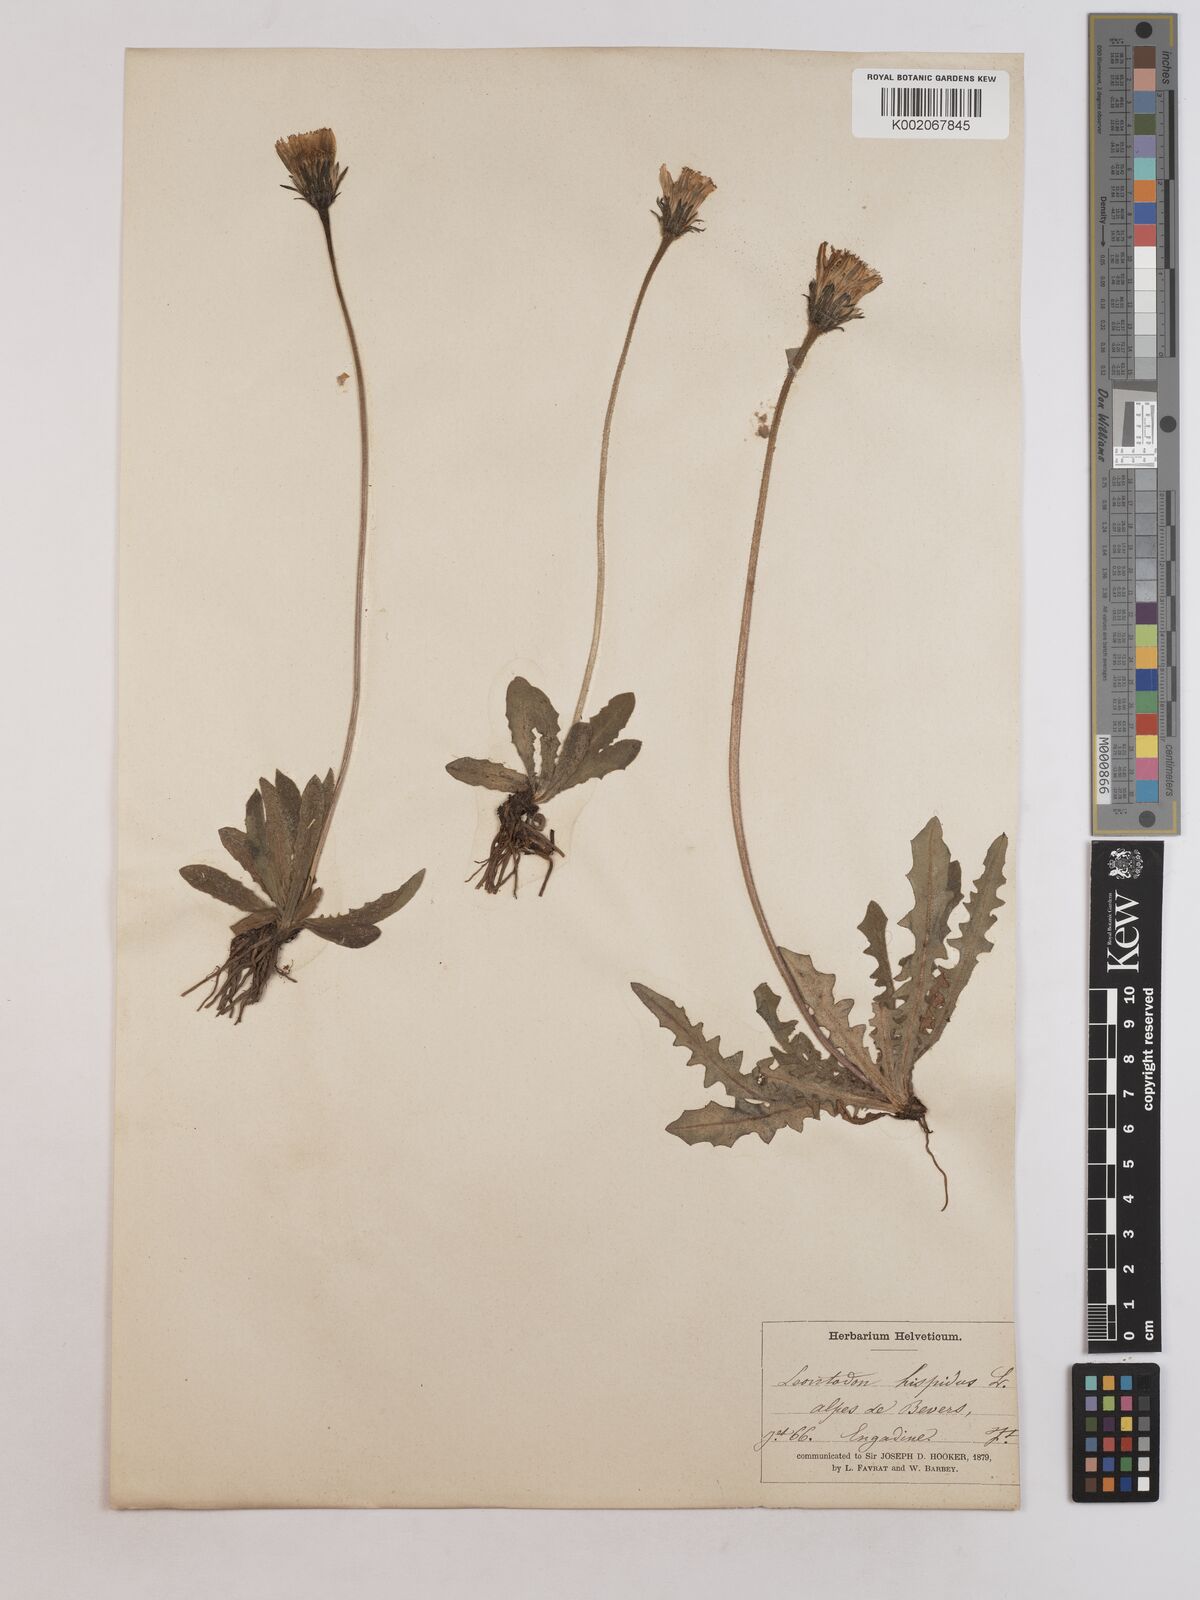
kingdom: Plantae
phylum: Tracheophyta
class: Magnoliopsida
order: Asterales
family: Asteraceae
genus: Leontodon
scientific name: Leontodon
